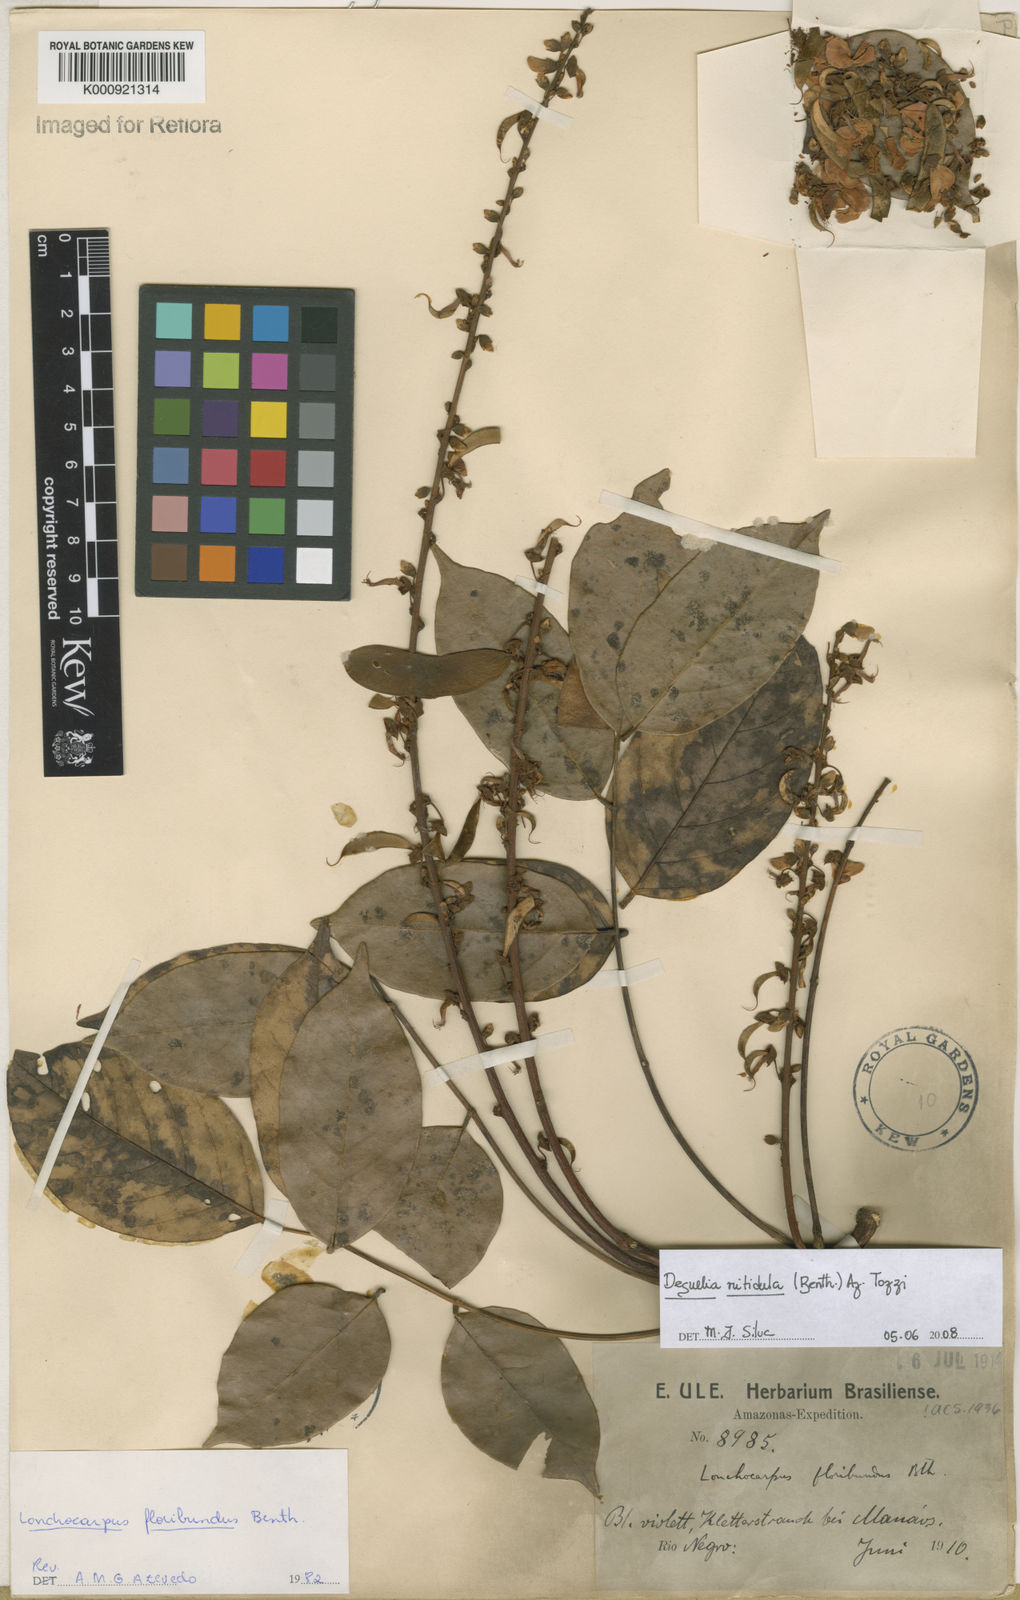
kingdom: Plantae
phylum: Tracheophyta
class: Magnoliopsida
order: Fabales
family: Fabaceae
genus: Deguelia
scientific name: Deguelia nitidula
